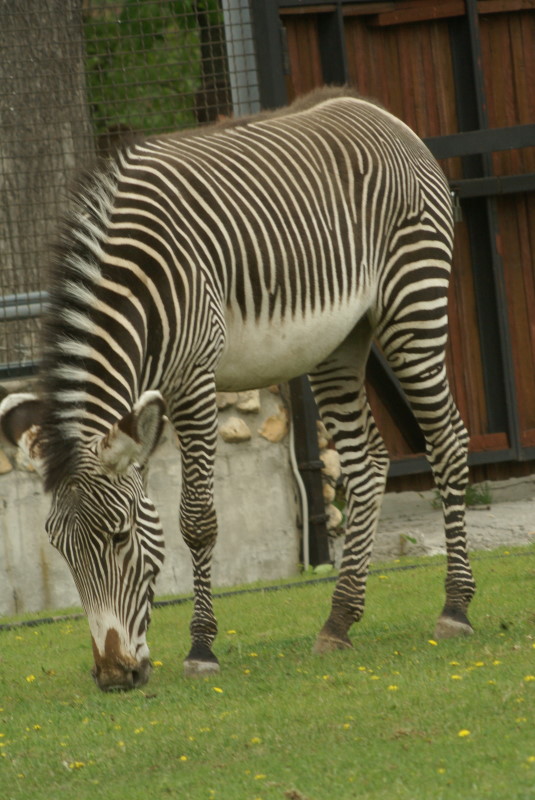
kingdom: Animalia
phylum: Chordata
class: Mammalia
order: Perissodactyla
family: Equidae
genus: Equus
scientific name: Equus quagga
